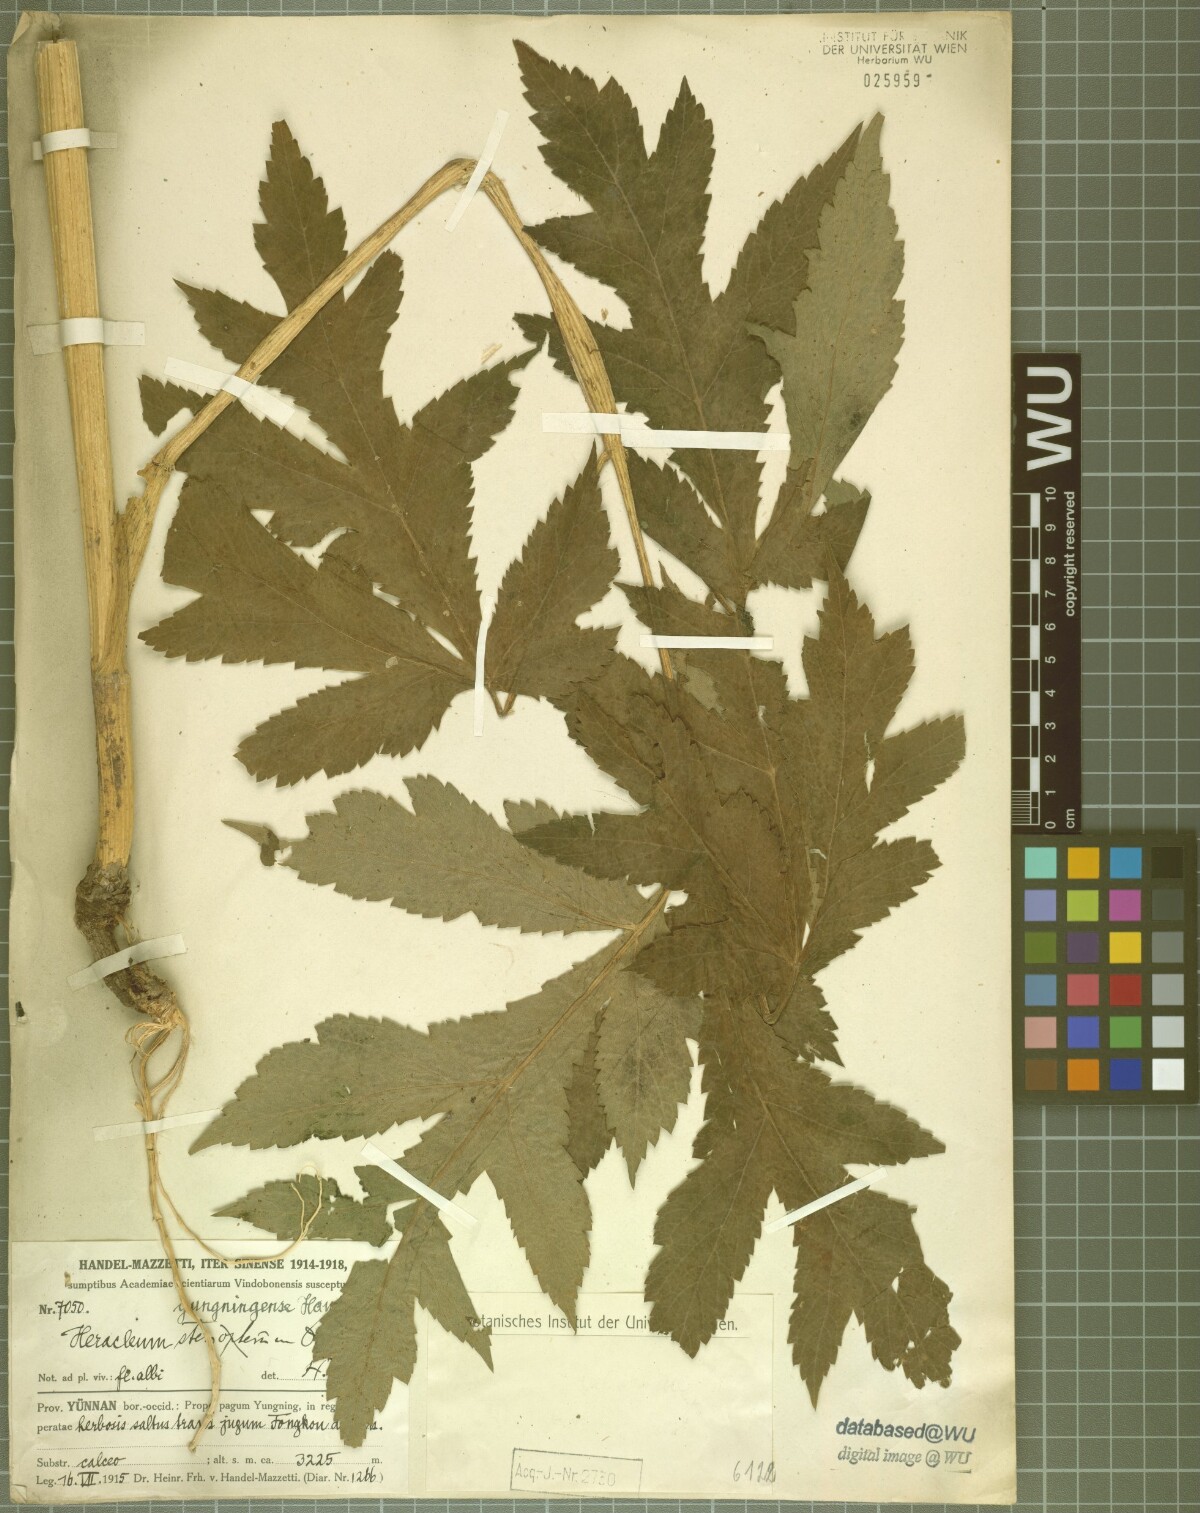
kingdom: Plantae
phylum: Tracheophyta
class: Magnoliopsida
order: Apiales
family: Apiaceae
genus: Heracleum
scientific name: Heracleum yungningense
